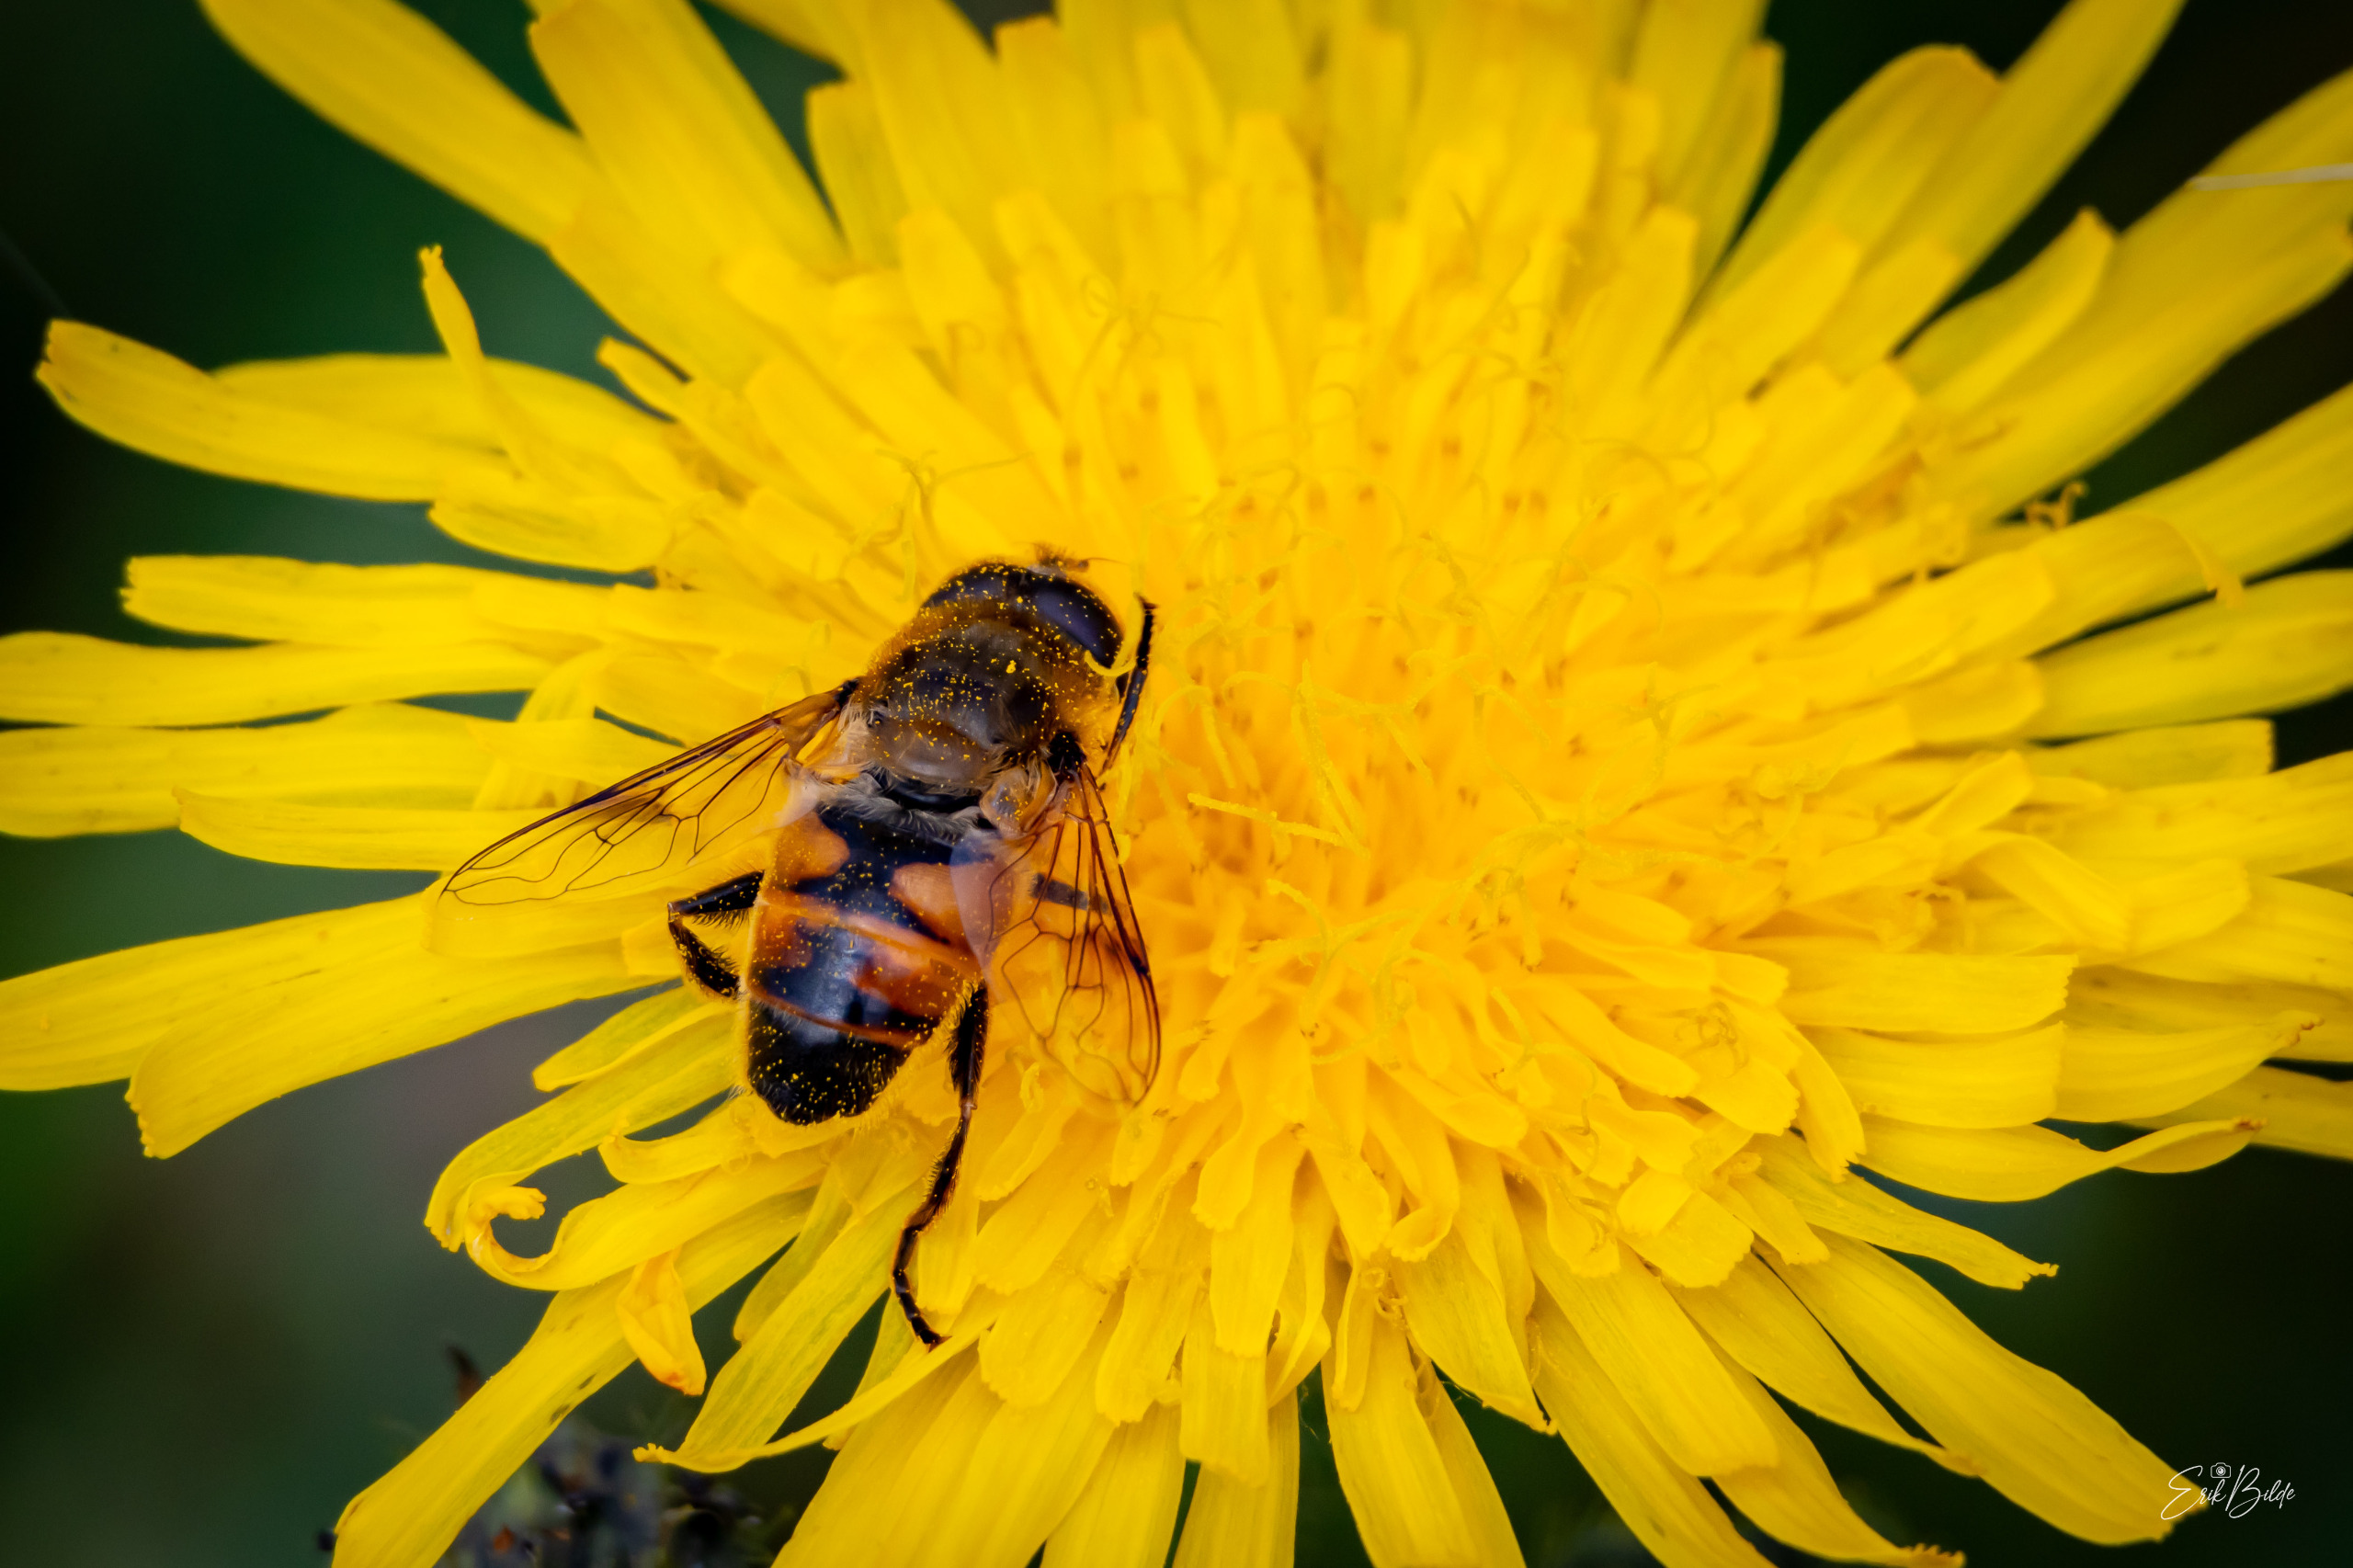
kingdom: Animalia
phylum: Arthropoda
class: Insecta
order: Diptera
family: Syrphidae
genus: Eristalis
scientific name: Eristalis tenax
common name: Droneflue
